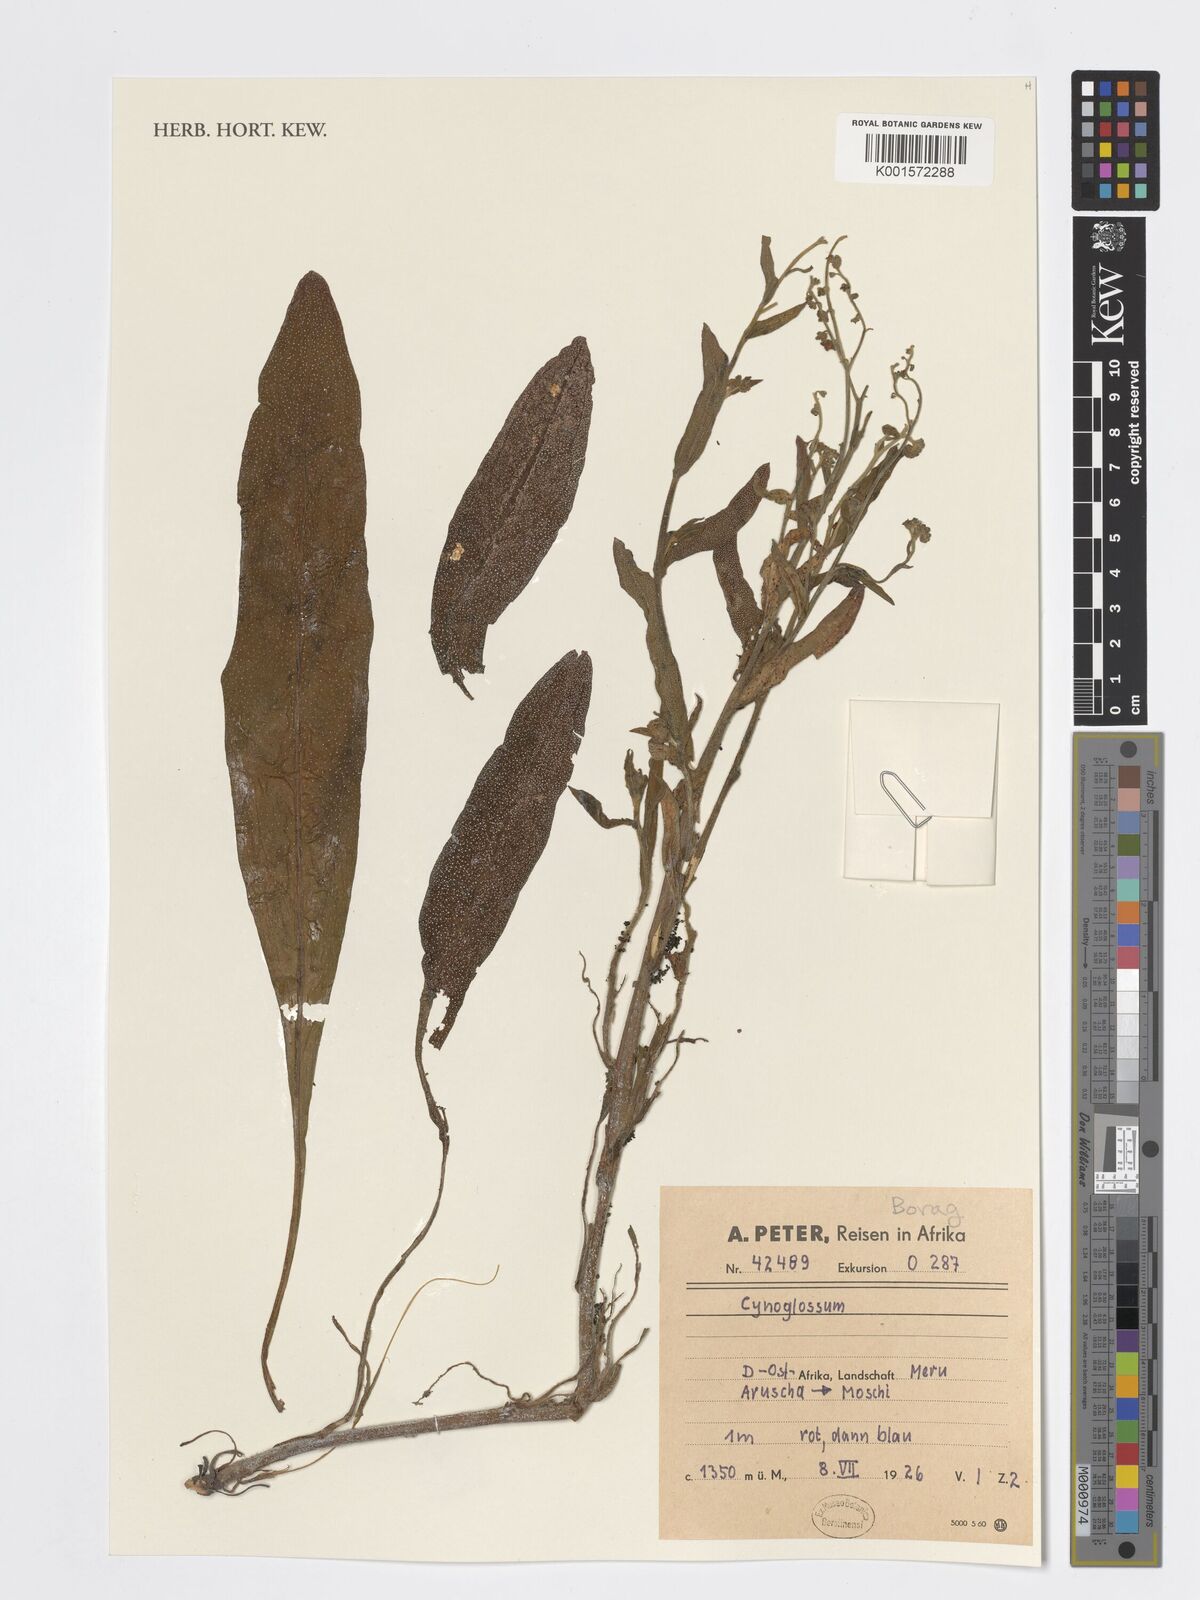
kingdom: Plantae
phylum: Tracheophyta
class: Magnoliopsida
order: Boraginales
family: Boraginaceae
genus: Cynoglossum
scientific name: Cynoglossum
